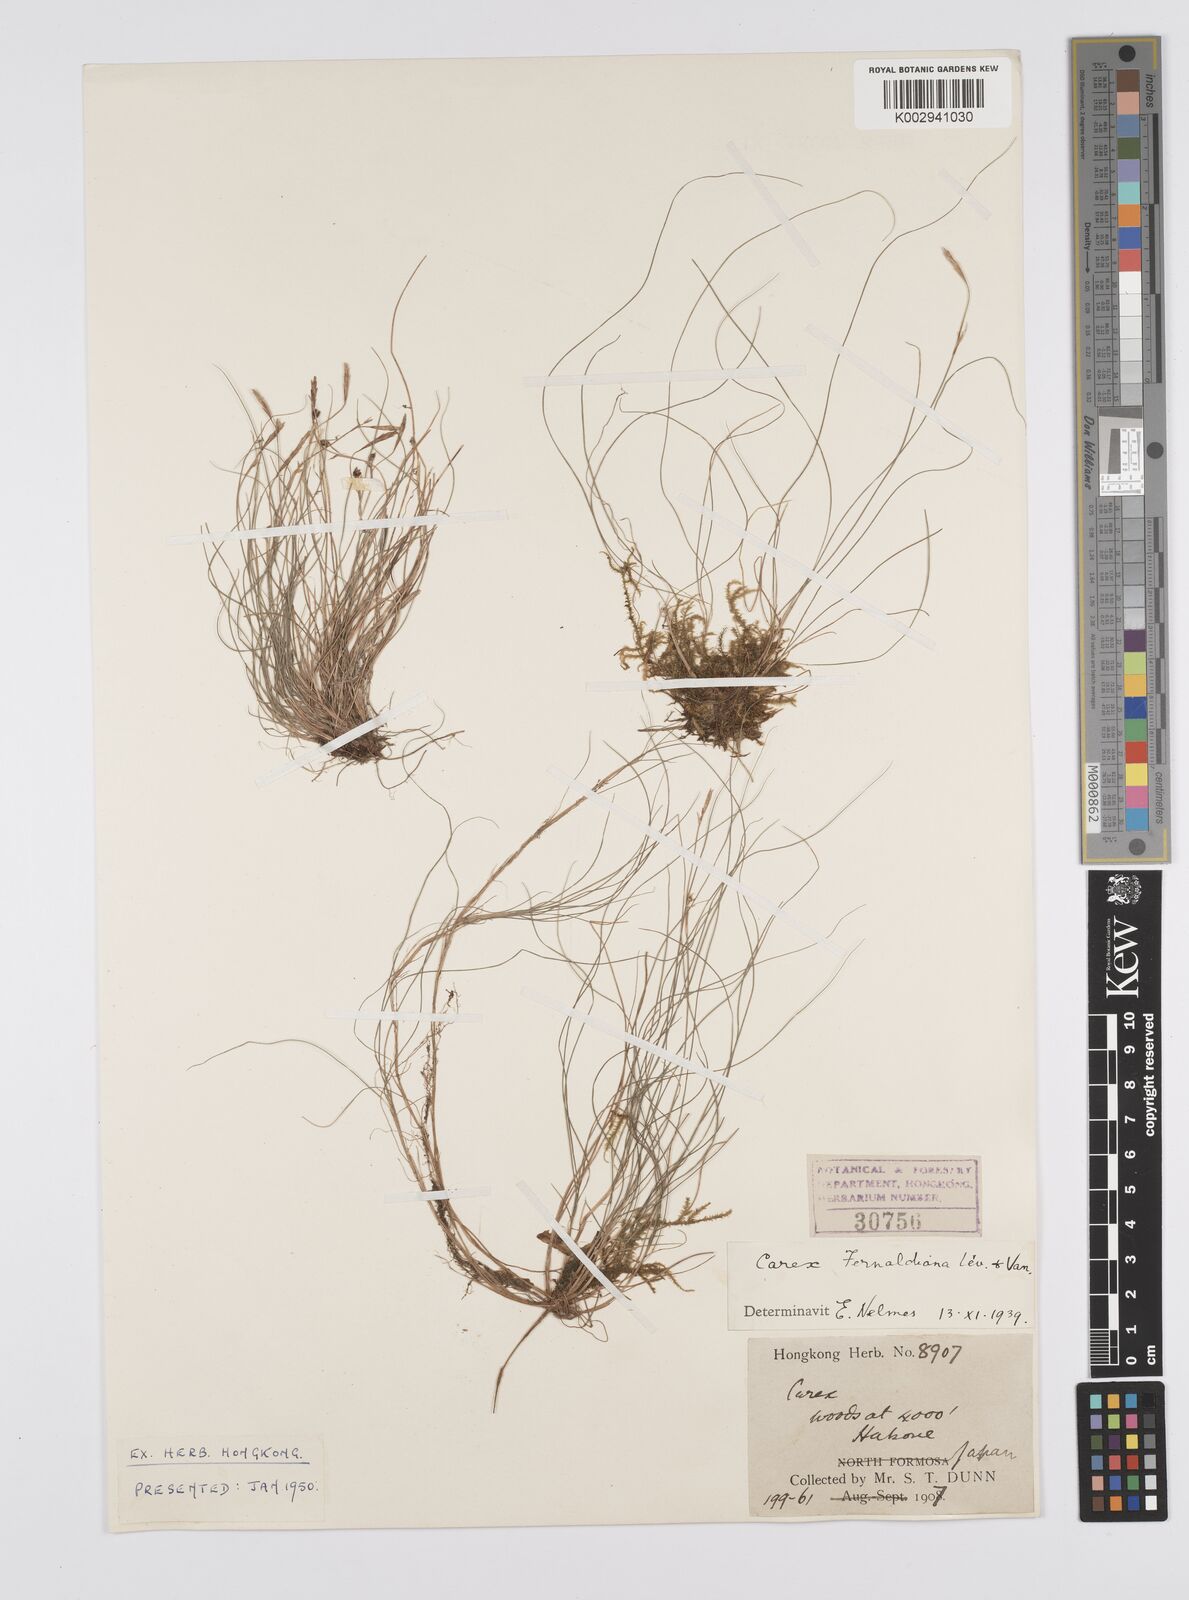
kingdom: Plantae
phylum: Tracheophyta
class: Liliopsida
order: Poales
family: Cyperaceae
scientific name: Cyperaceae
